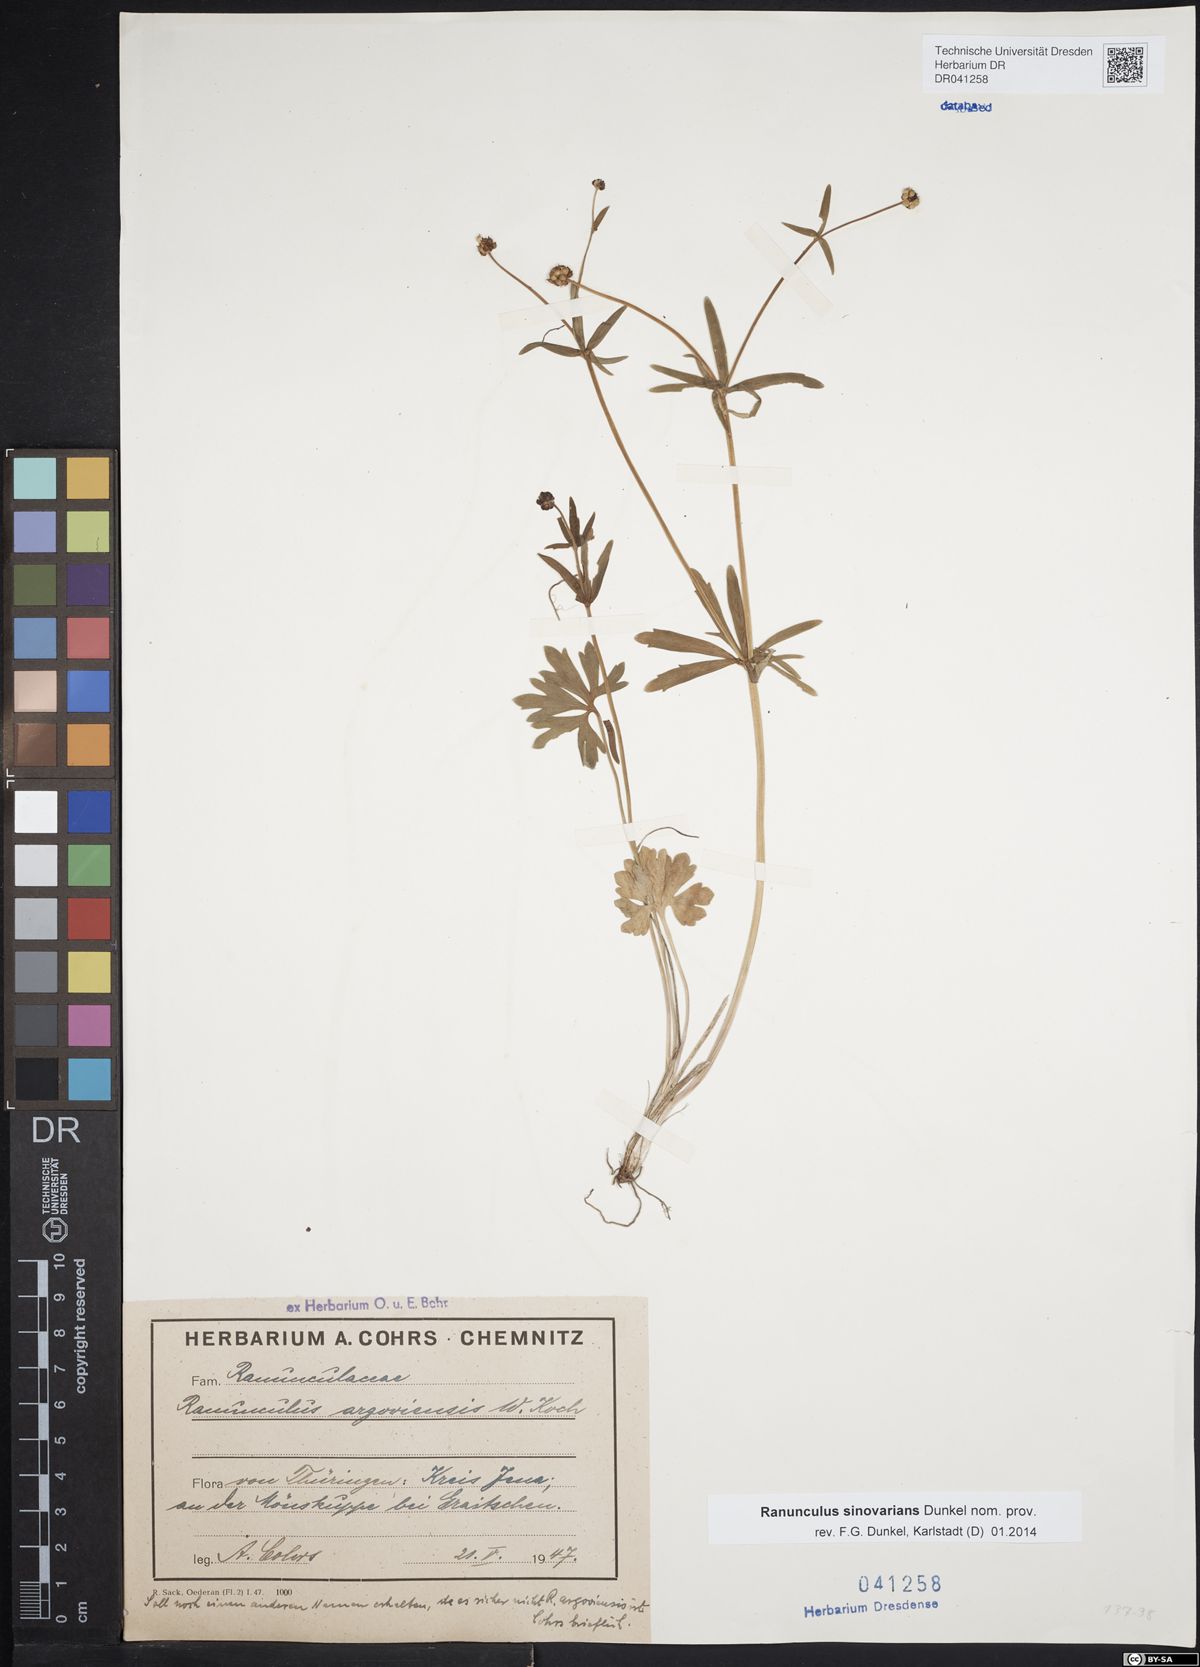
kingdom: Plantae
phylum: Tracheophyta
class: Magnoliopsida
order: Ranunculales
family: Ranunculaceae
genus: Ranunculus
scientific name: Ranunculus auricomus
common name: Goldilocks buttercup
